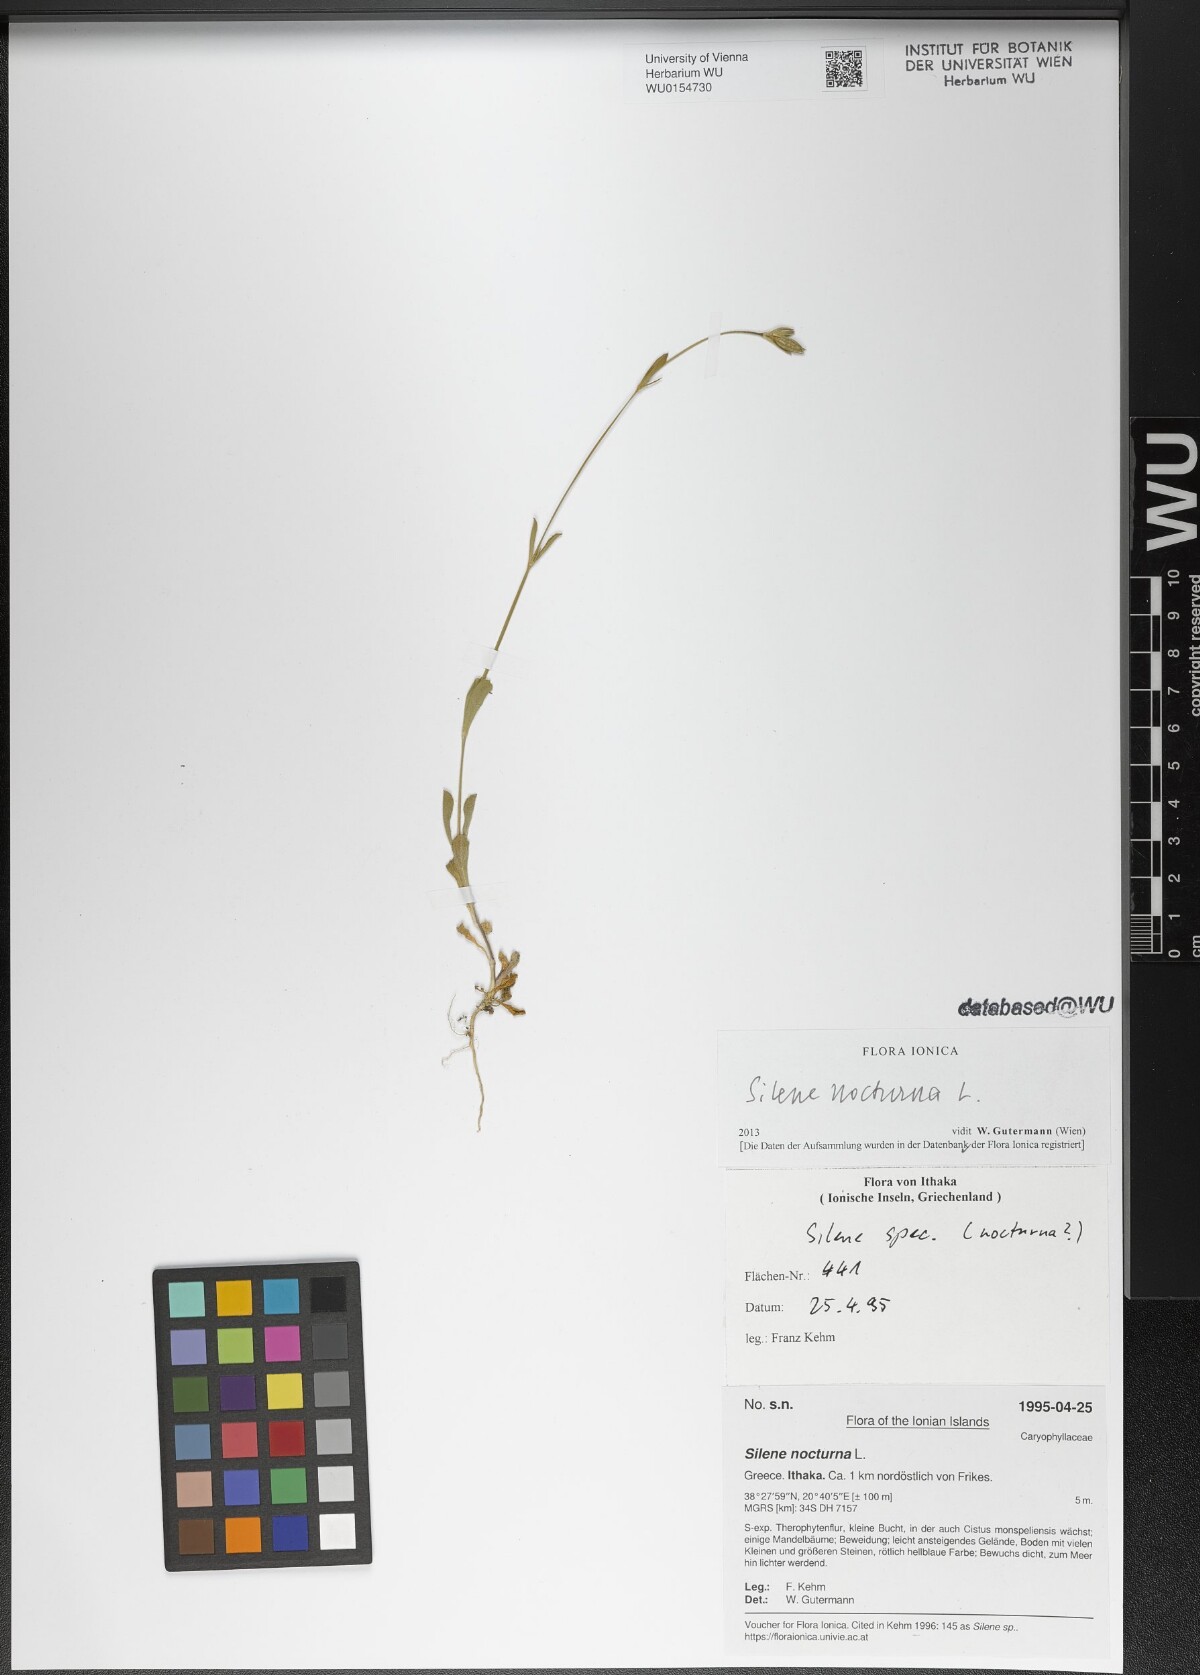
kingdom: Plantae
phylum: Tracheophyta
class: Magnoliopsida
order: Caryophyllales
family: Caryophyllaceae
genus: Silene
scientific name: Silene nocturna
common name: Mediterranean catchfly
